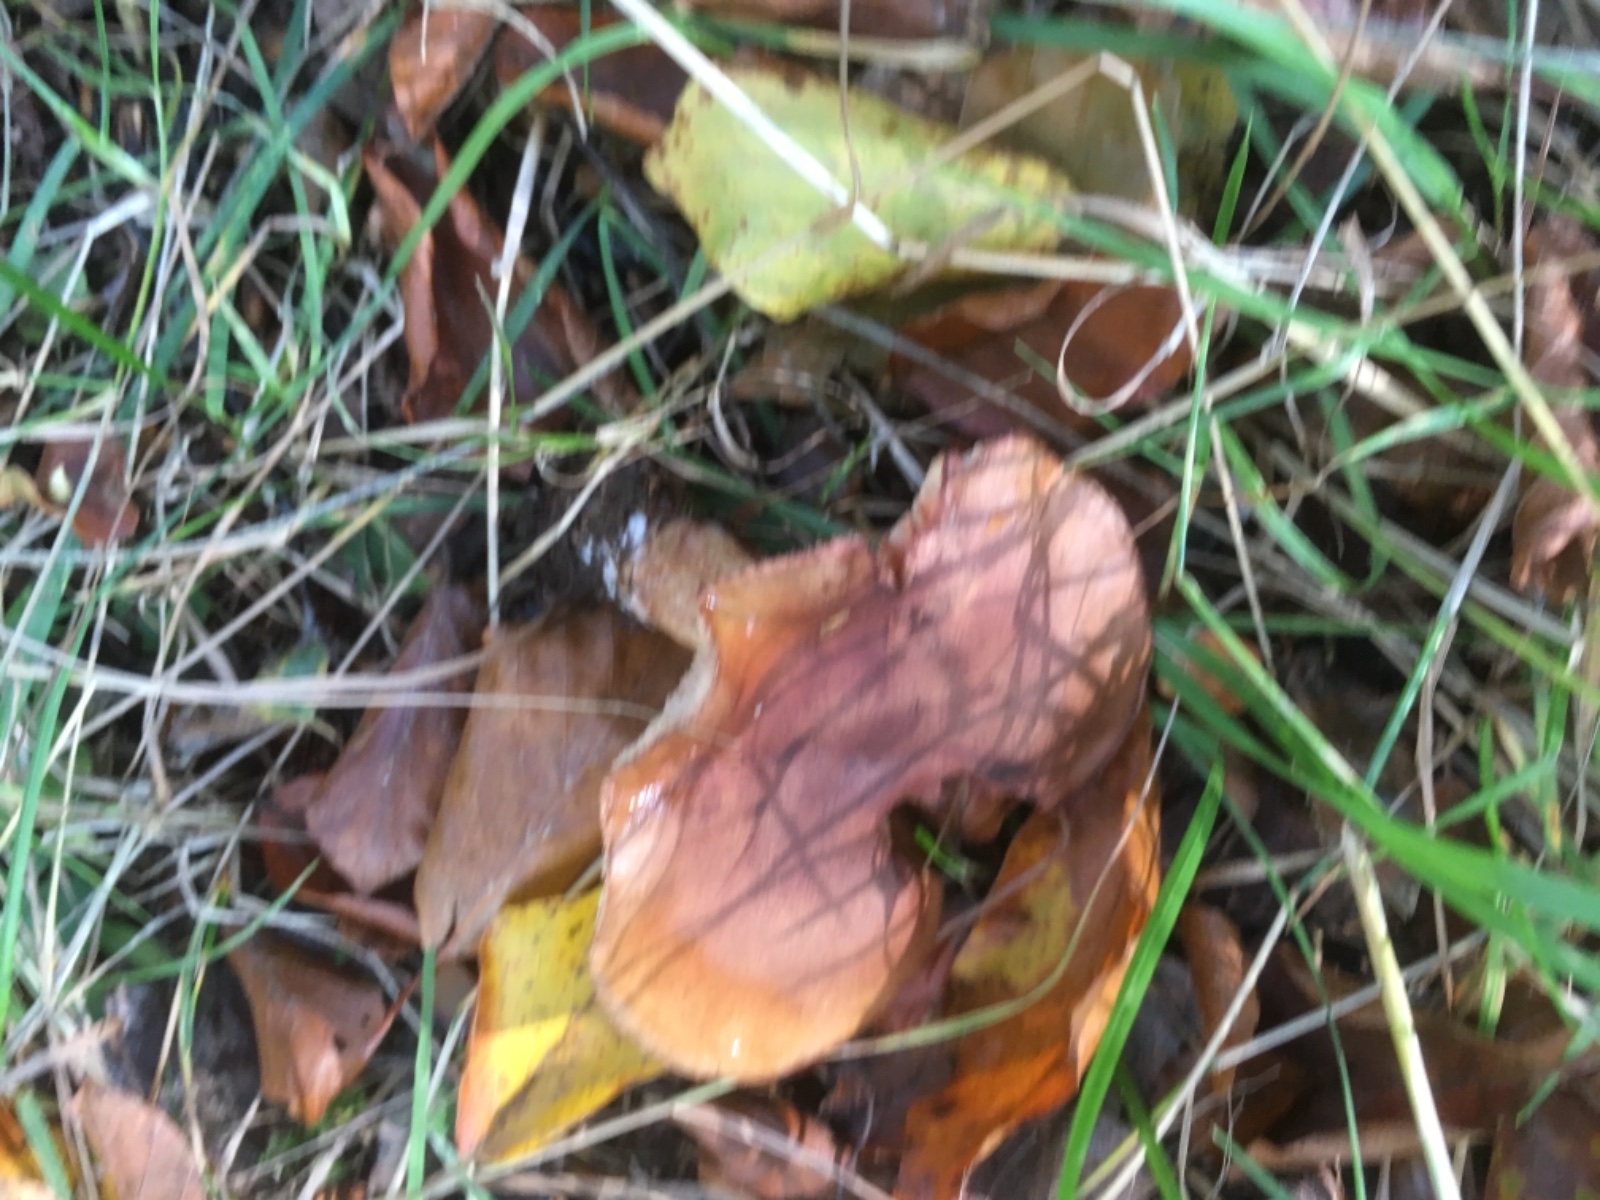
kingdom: Fungi
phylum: Basidiomycota
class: Agaricomycetes
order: Agaricales
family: Tricholomataceae
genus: Tricholoma
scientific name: Tricholoma ustale
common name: sveden ridderhat
